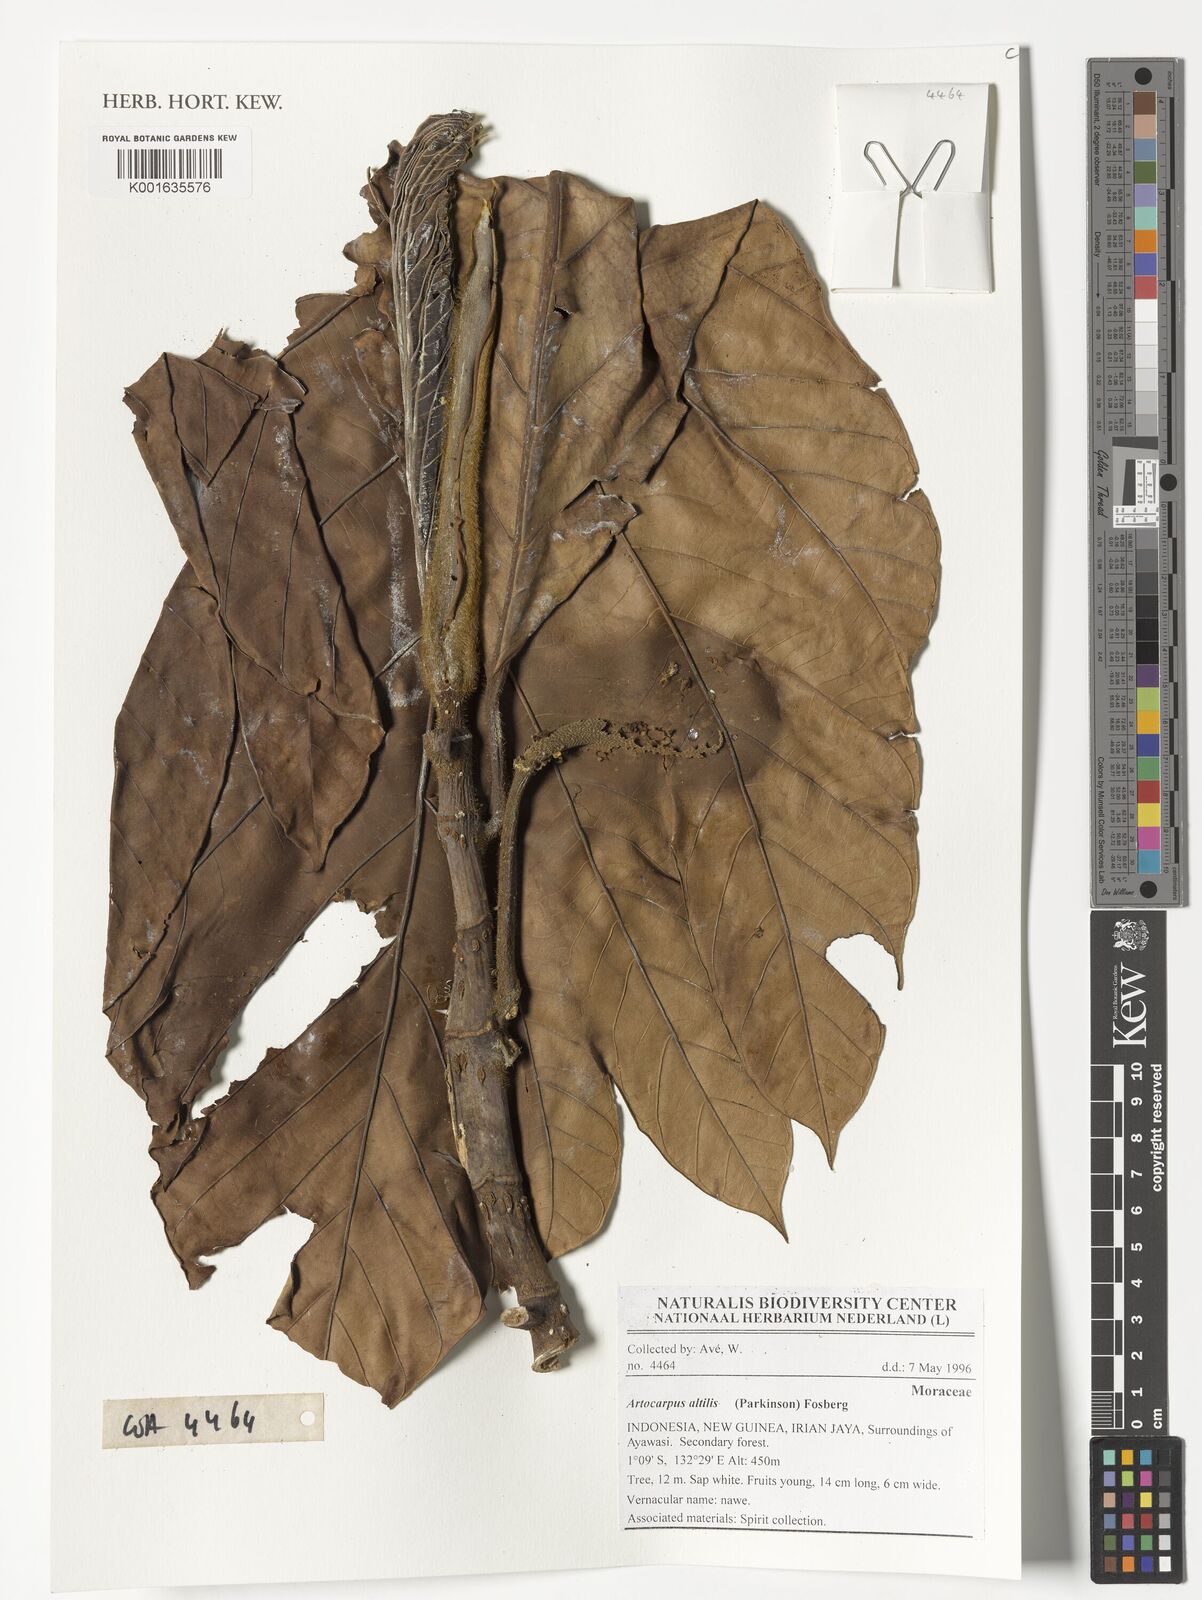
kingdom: Plantae
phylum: Tracheophyta
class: Magnoliopsida
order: Rosales
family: Moraceae
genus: Artocarpus
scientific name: Artocarpus altilis
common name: Breadfruit
